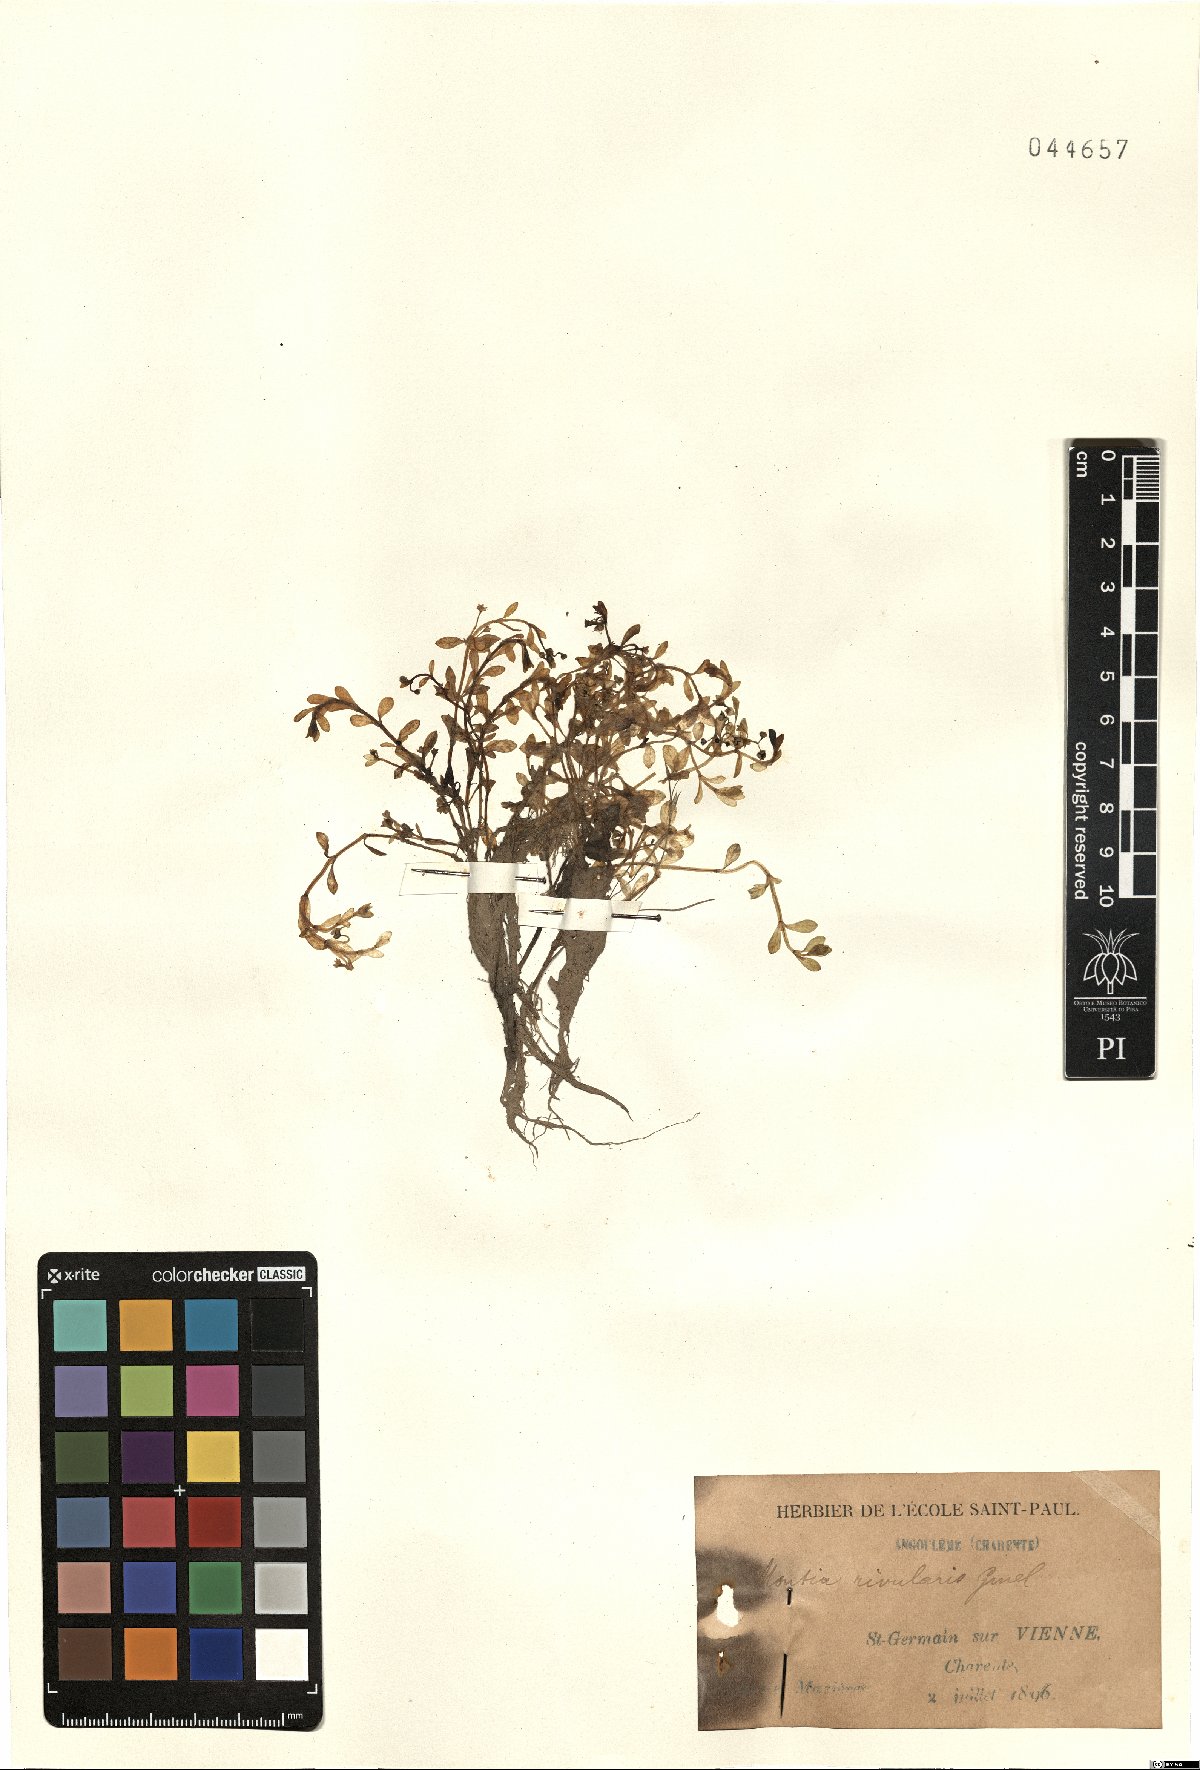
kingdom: Plantae
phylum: Tracheophyta
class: Magnoliopsida
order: Caryophyllales
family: Montiaceae
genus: Montia
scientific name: Montia fontana
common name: Blinks
